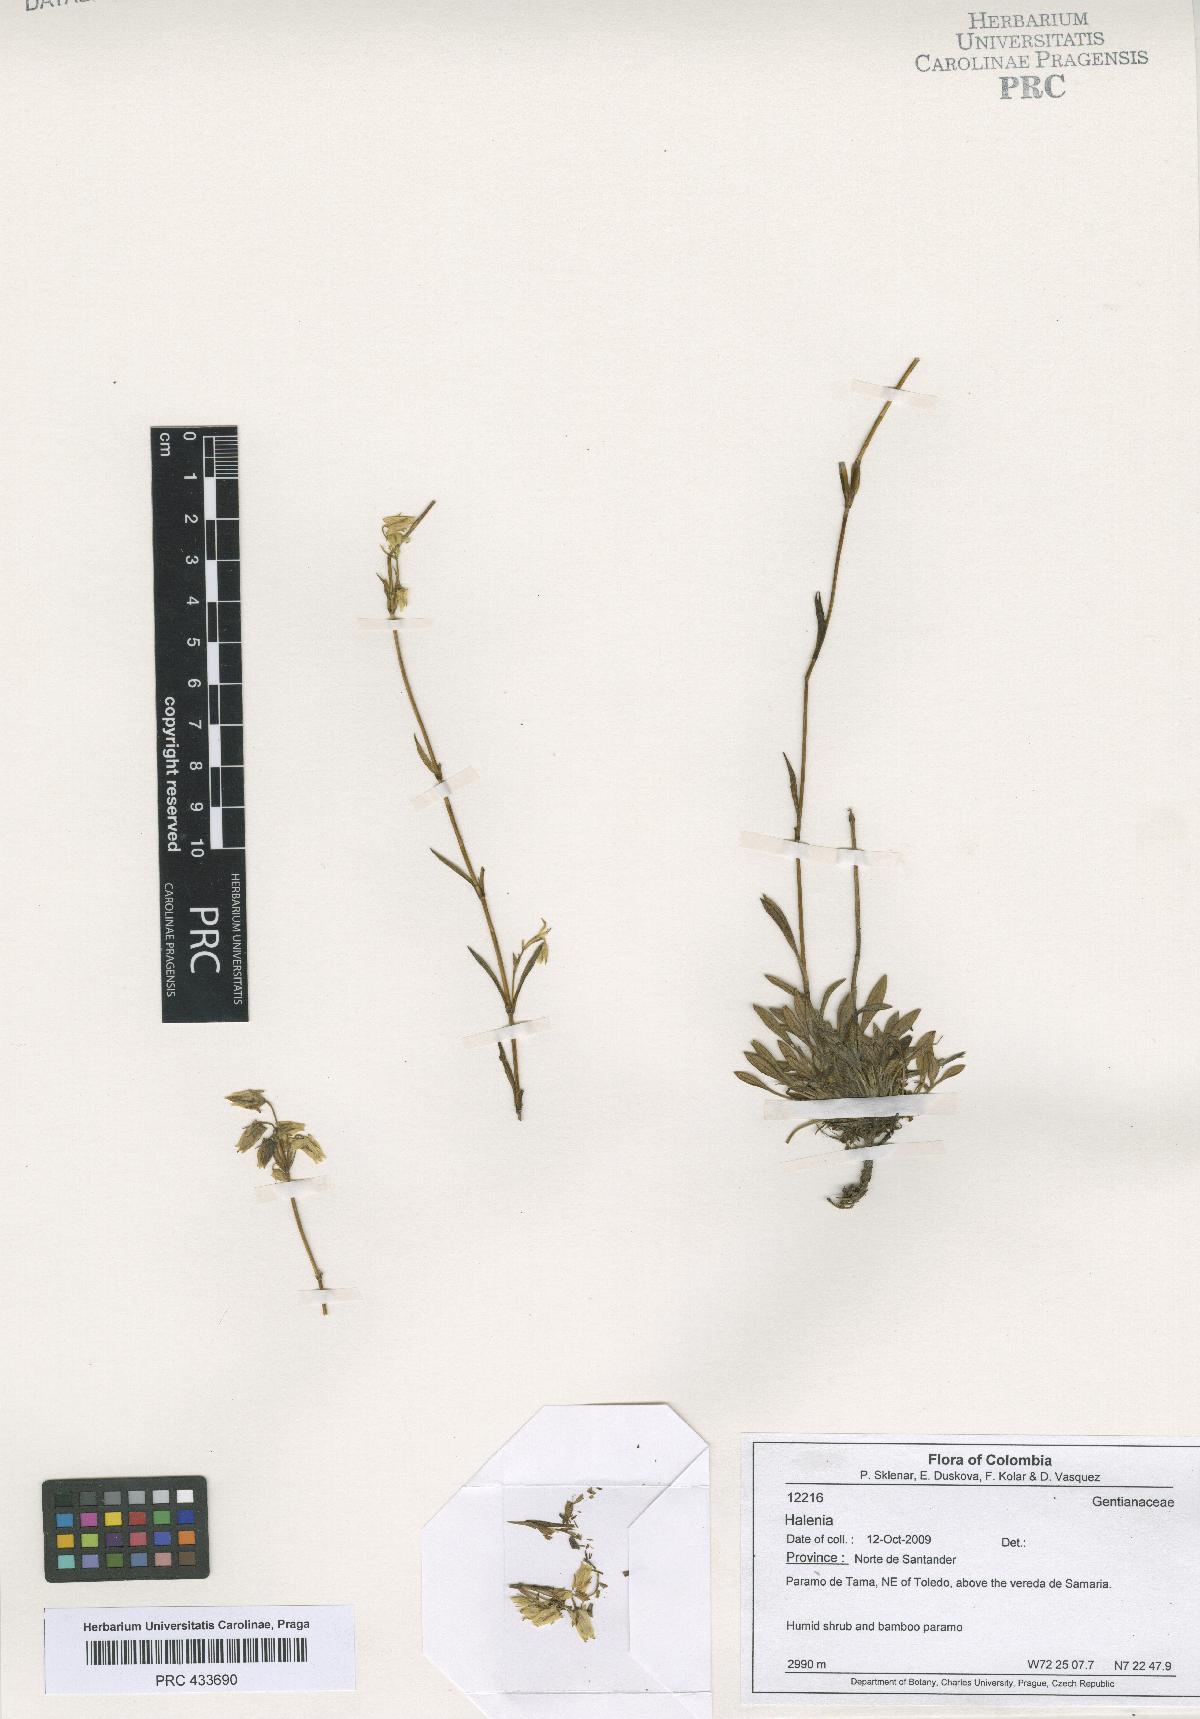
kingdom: Plantae
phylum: Tracheophyta
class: Magnoliopsida
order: Gentianales
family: Gentianaceae
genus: Halenia
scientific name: Halenia
